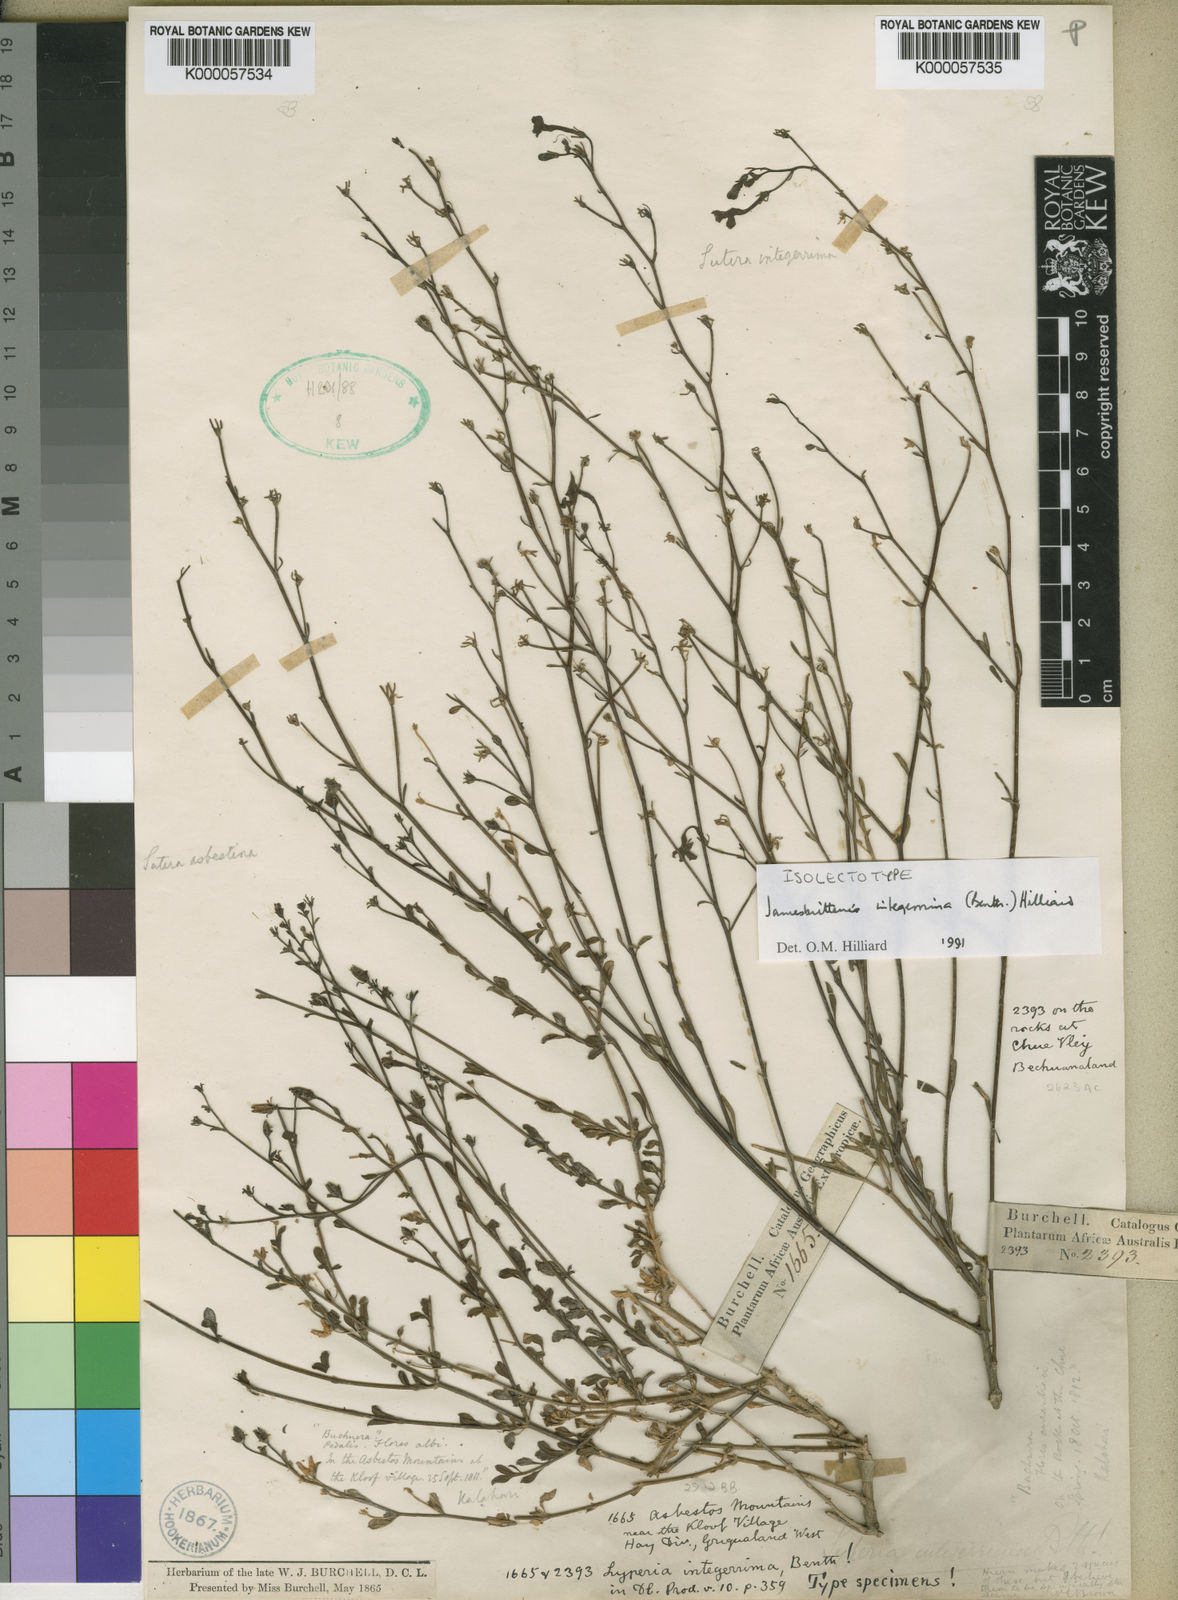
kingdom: Plantae
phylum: Tracheophyta
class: Magnoliopsida
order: Lamiales
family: Scrophulariaceae
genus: Jamesbrittenia
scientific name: Jamesbrittenia integerrima
